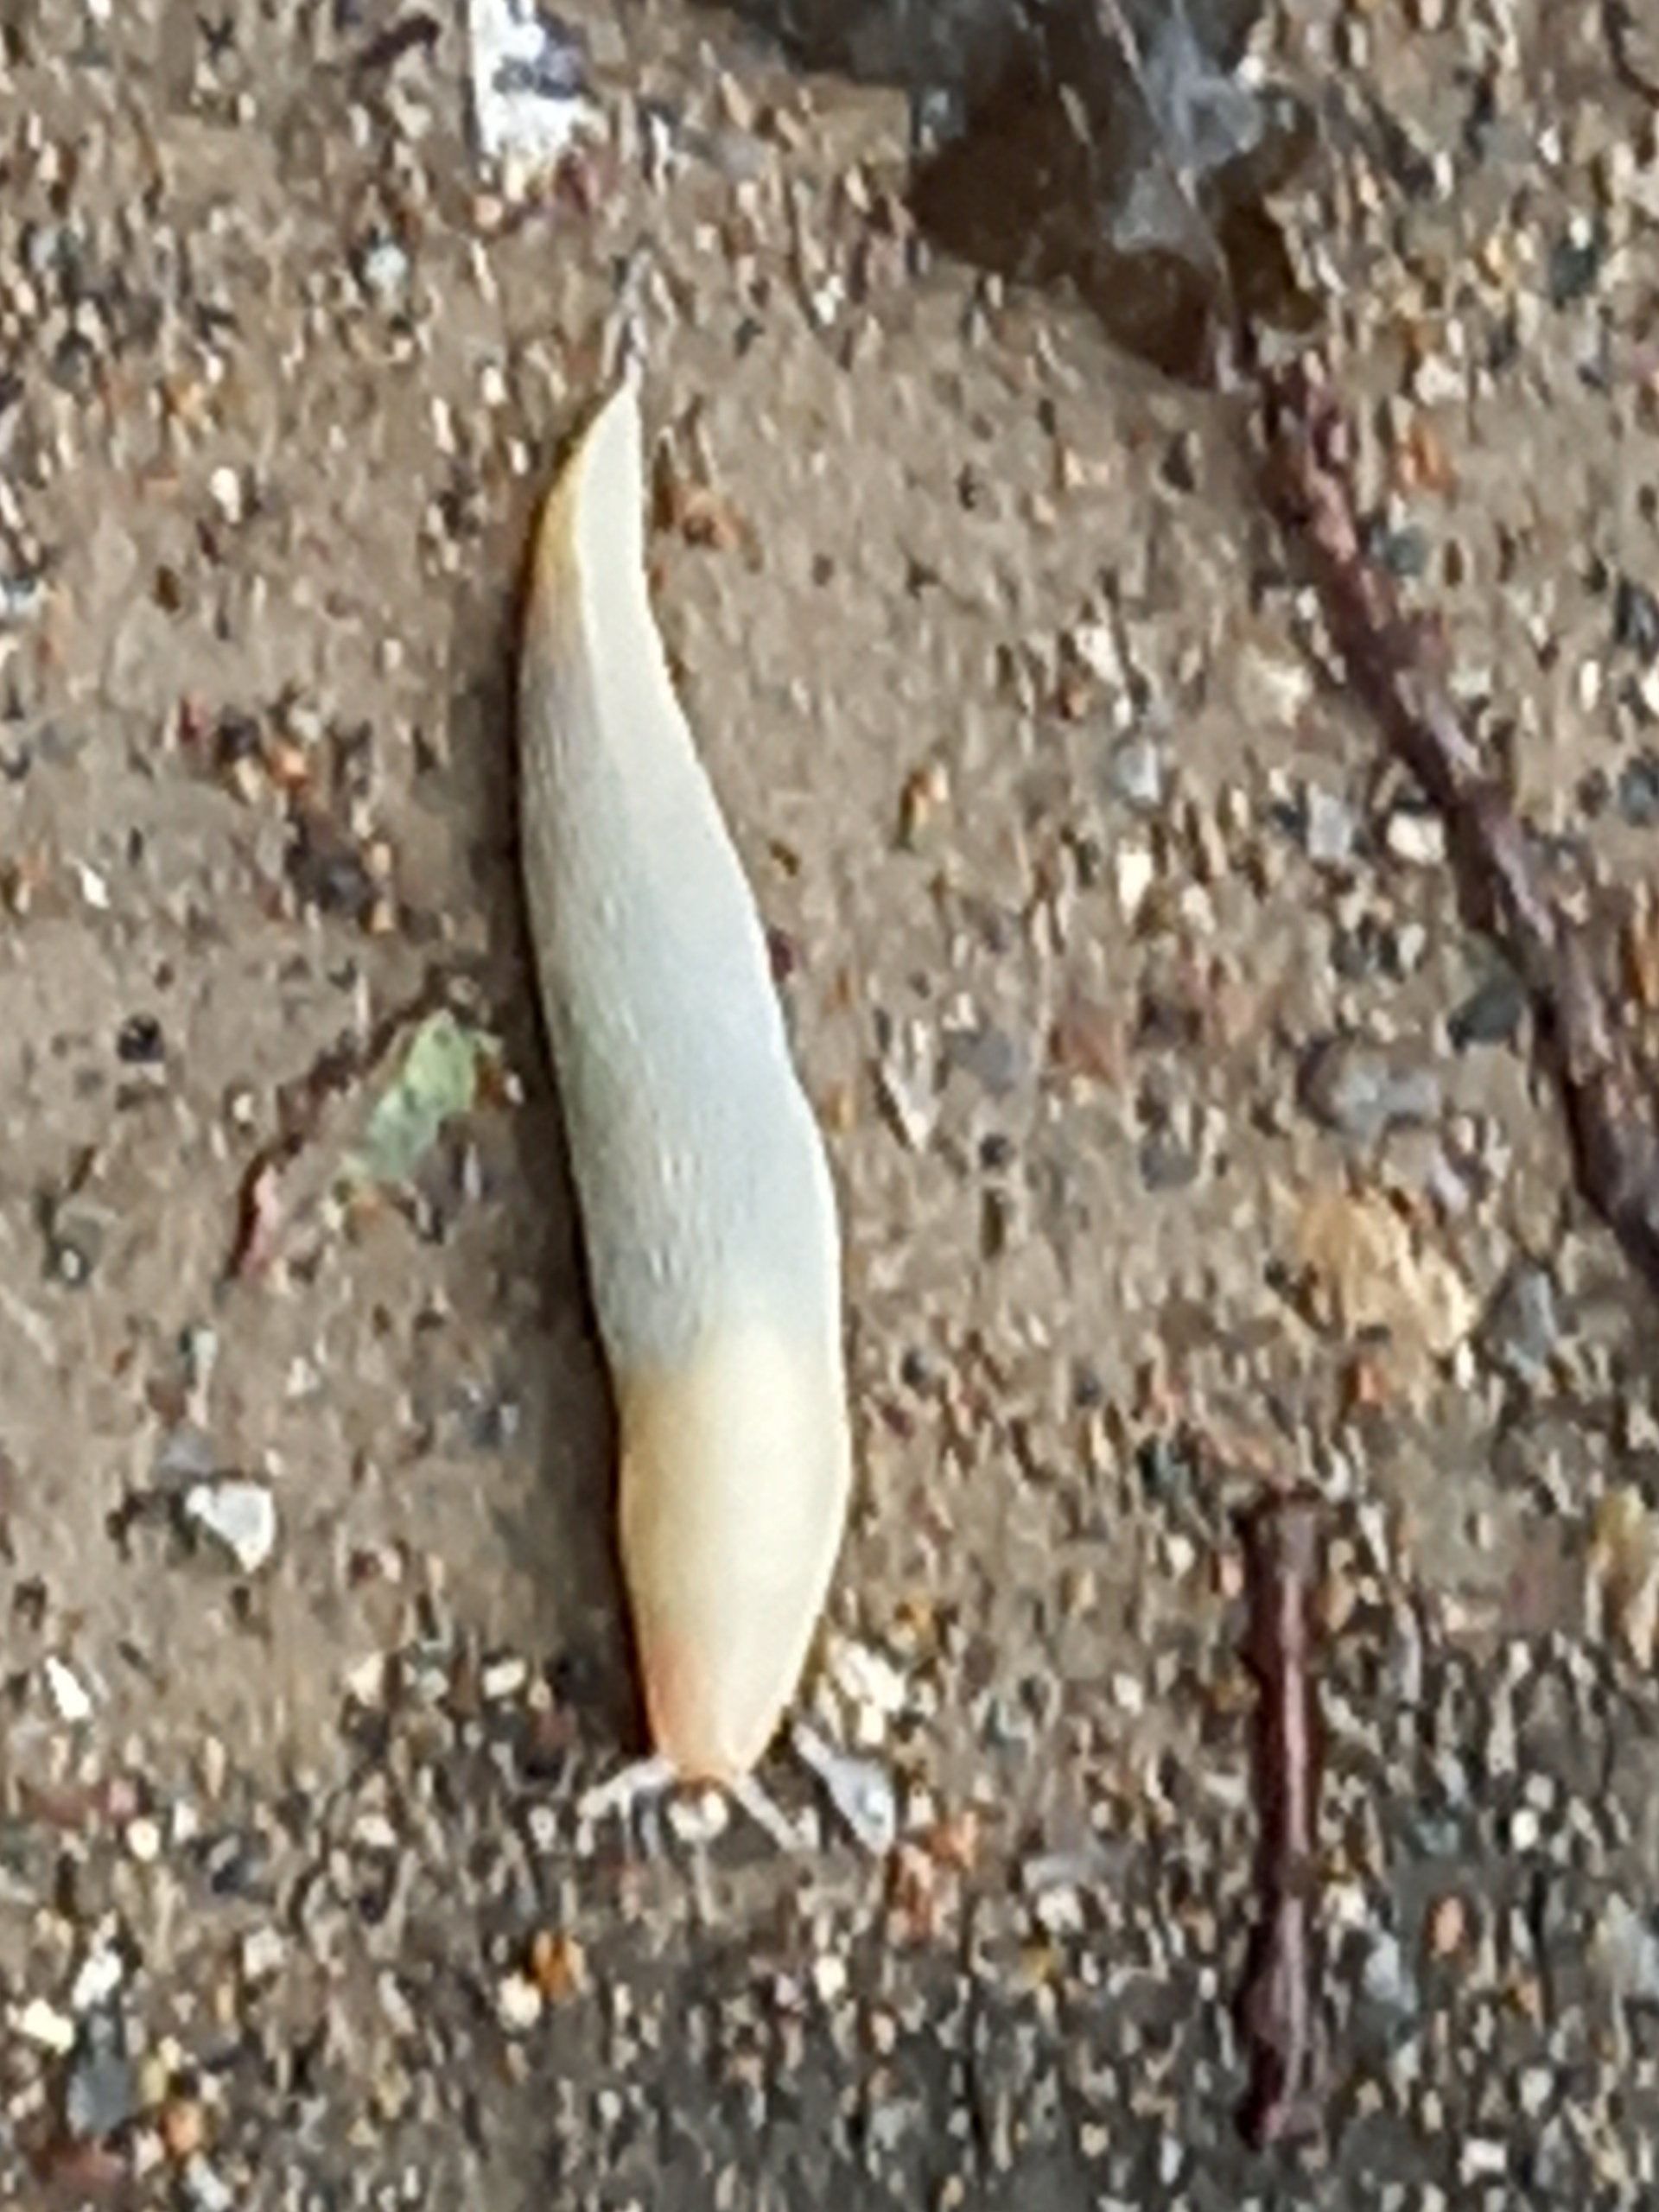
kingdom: Animalia
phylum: Mollusca
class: Gastropoda
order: Stylommatophora
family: Arionidae
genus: Arion
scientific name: Arion ater
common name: Sort skovsnegl
